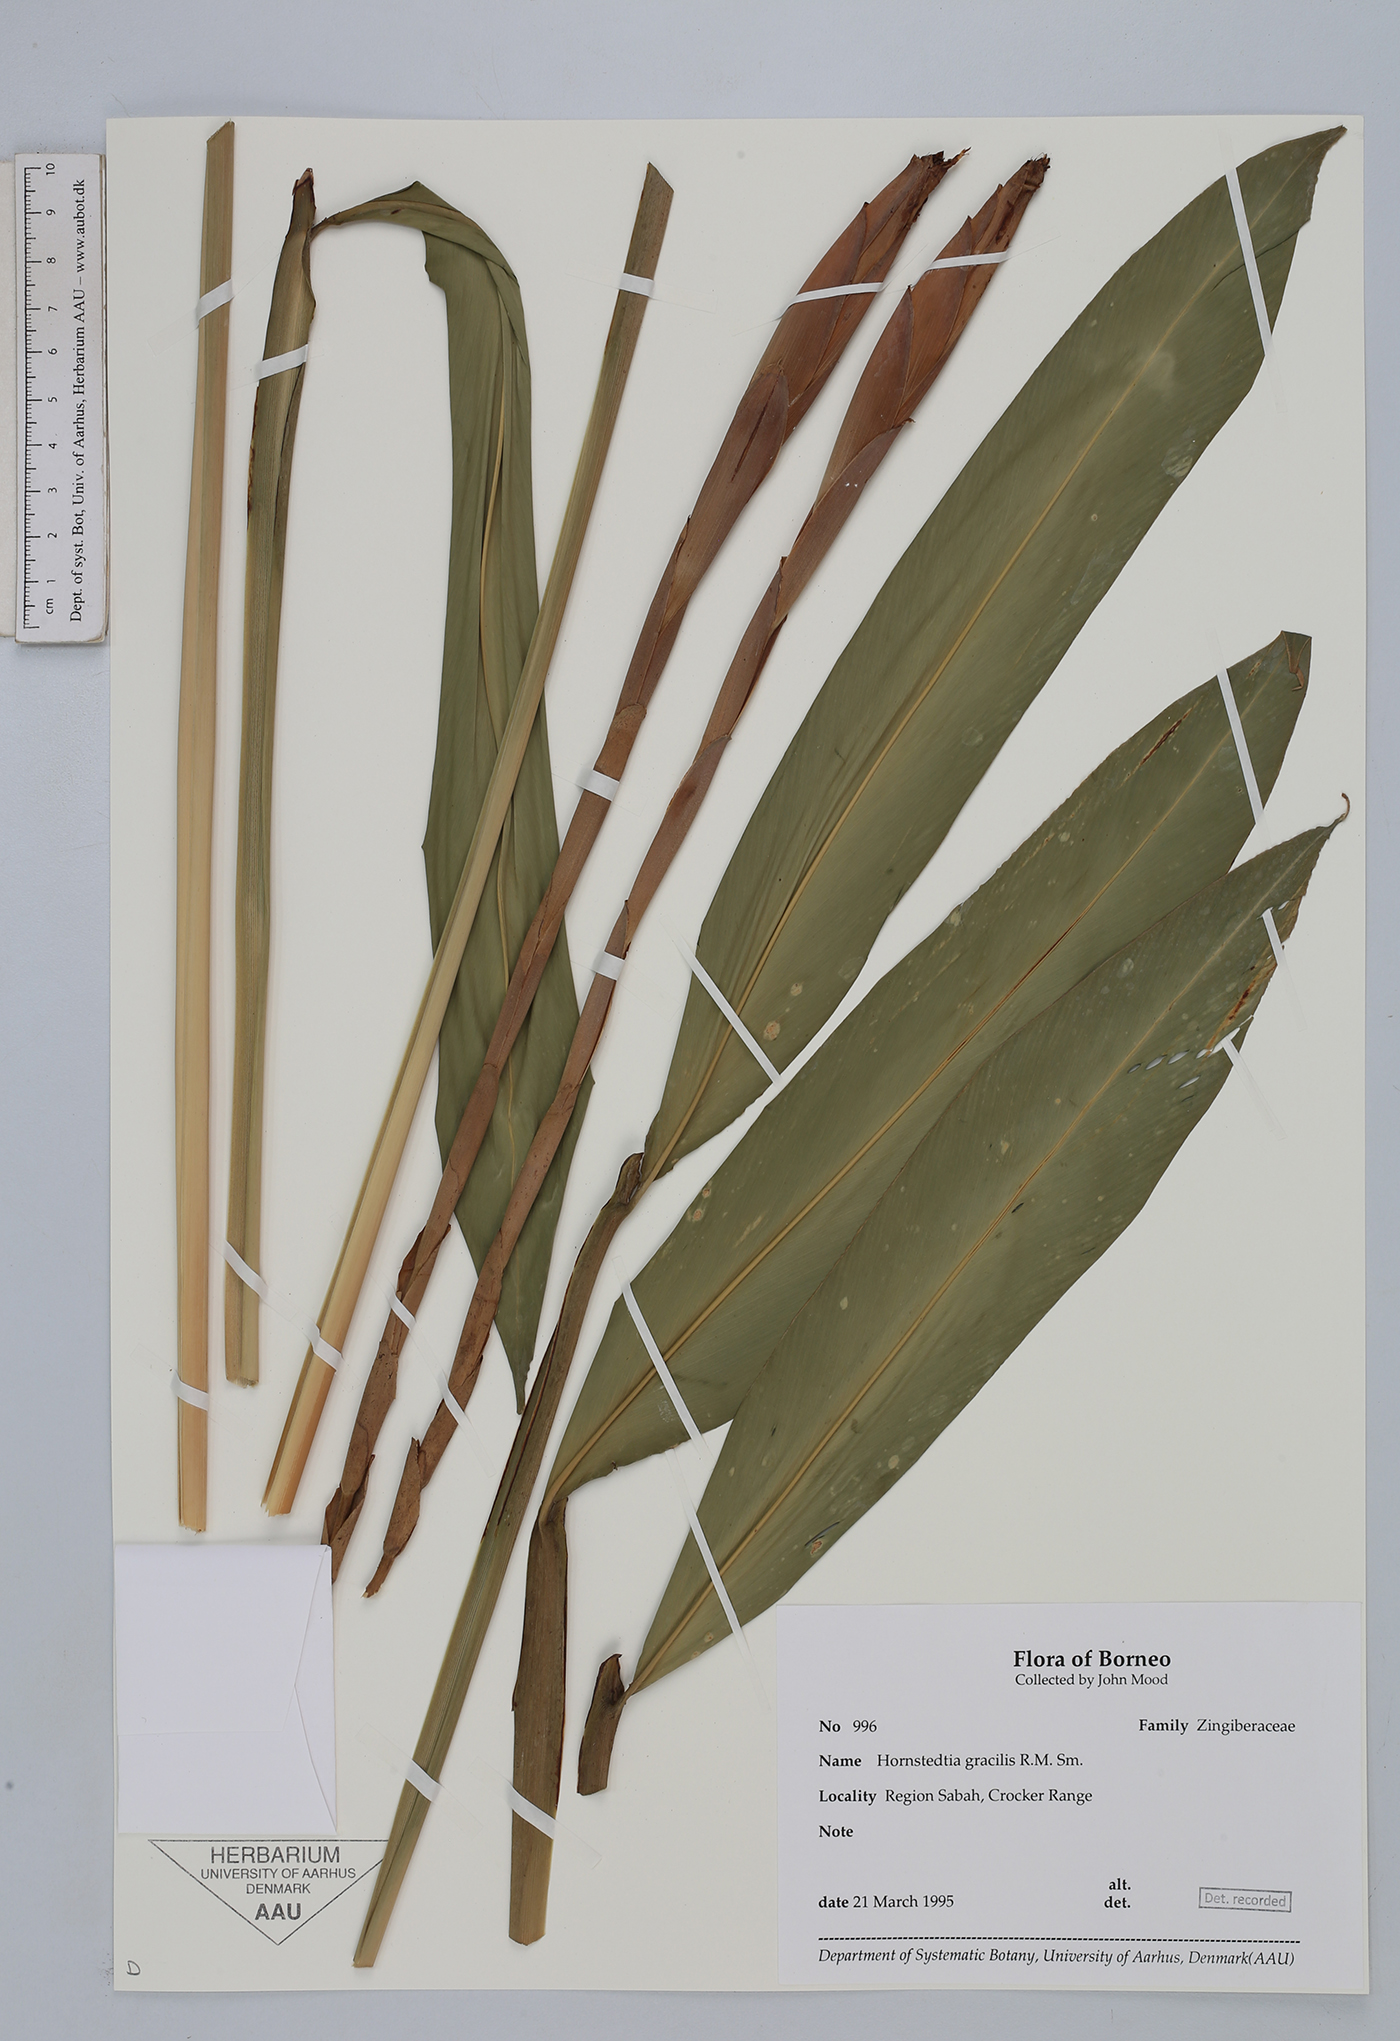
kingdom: Plantae
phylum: Tracheophyta
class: Liliopsida
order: Zingiberales
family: Zingiberaceae
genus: Hornstedtia
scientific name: Hornstedtia gracilis
